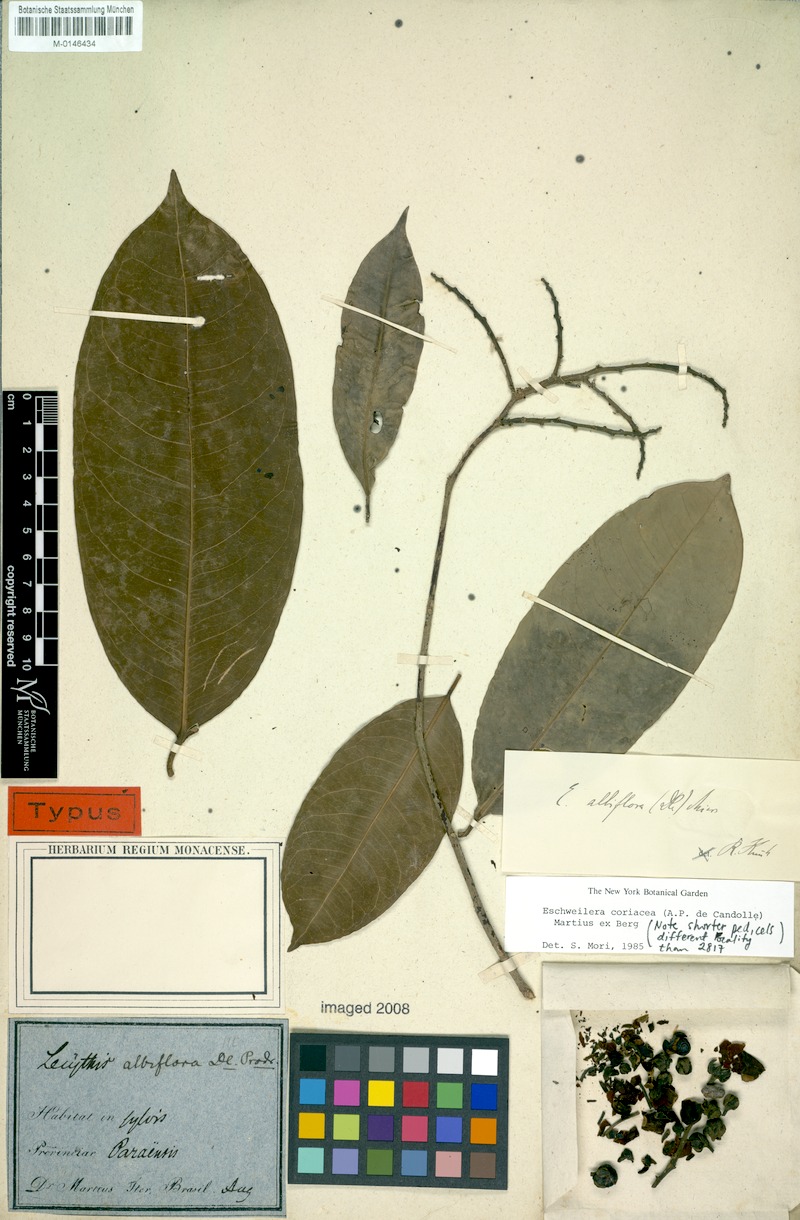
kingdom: Plantae
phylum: Tracheophyta
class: Magnoliopsida
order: Ericales
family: Lecythidaceae
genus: Eschweilera
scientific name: Eschweilera coriacea
